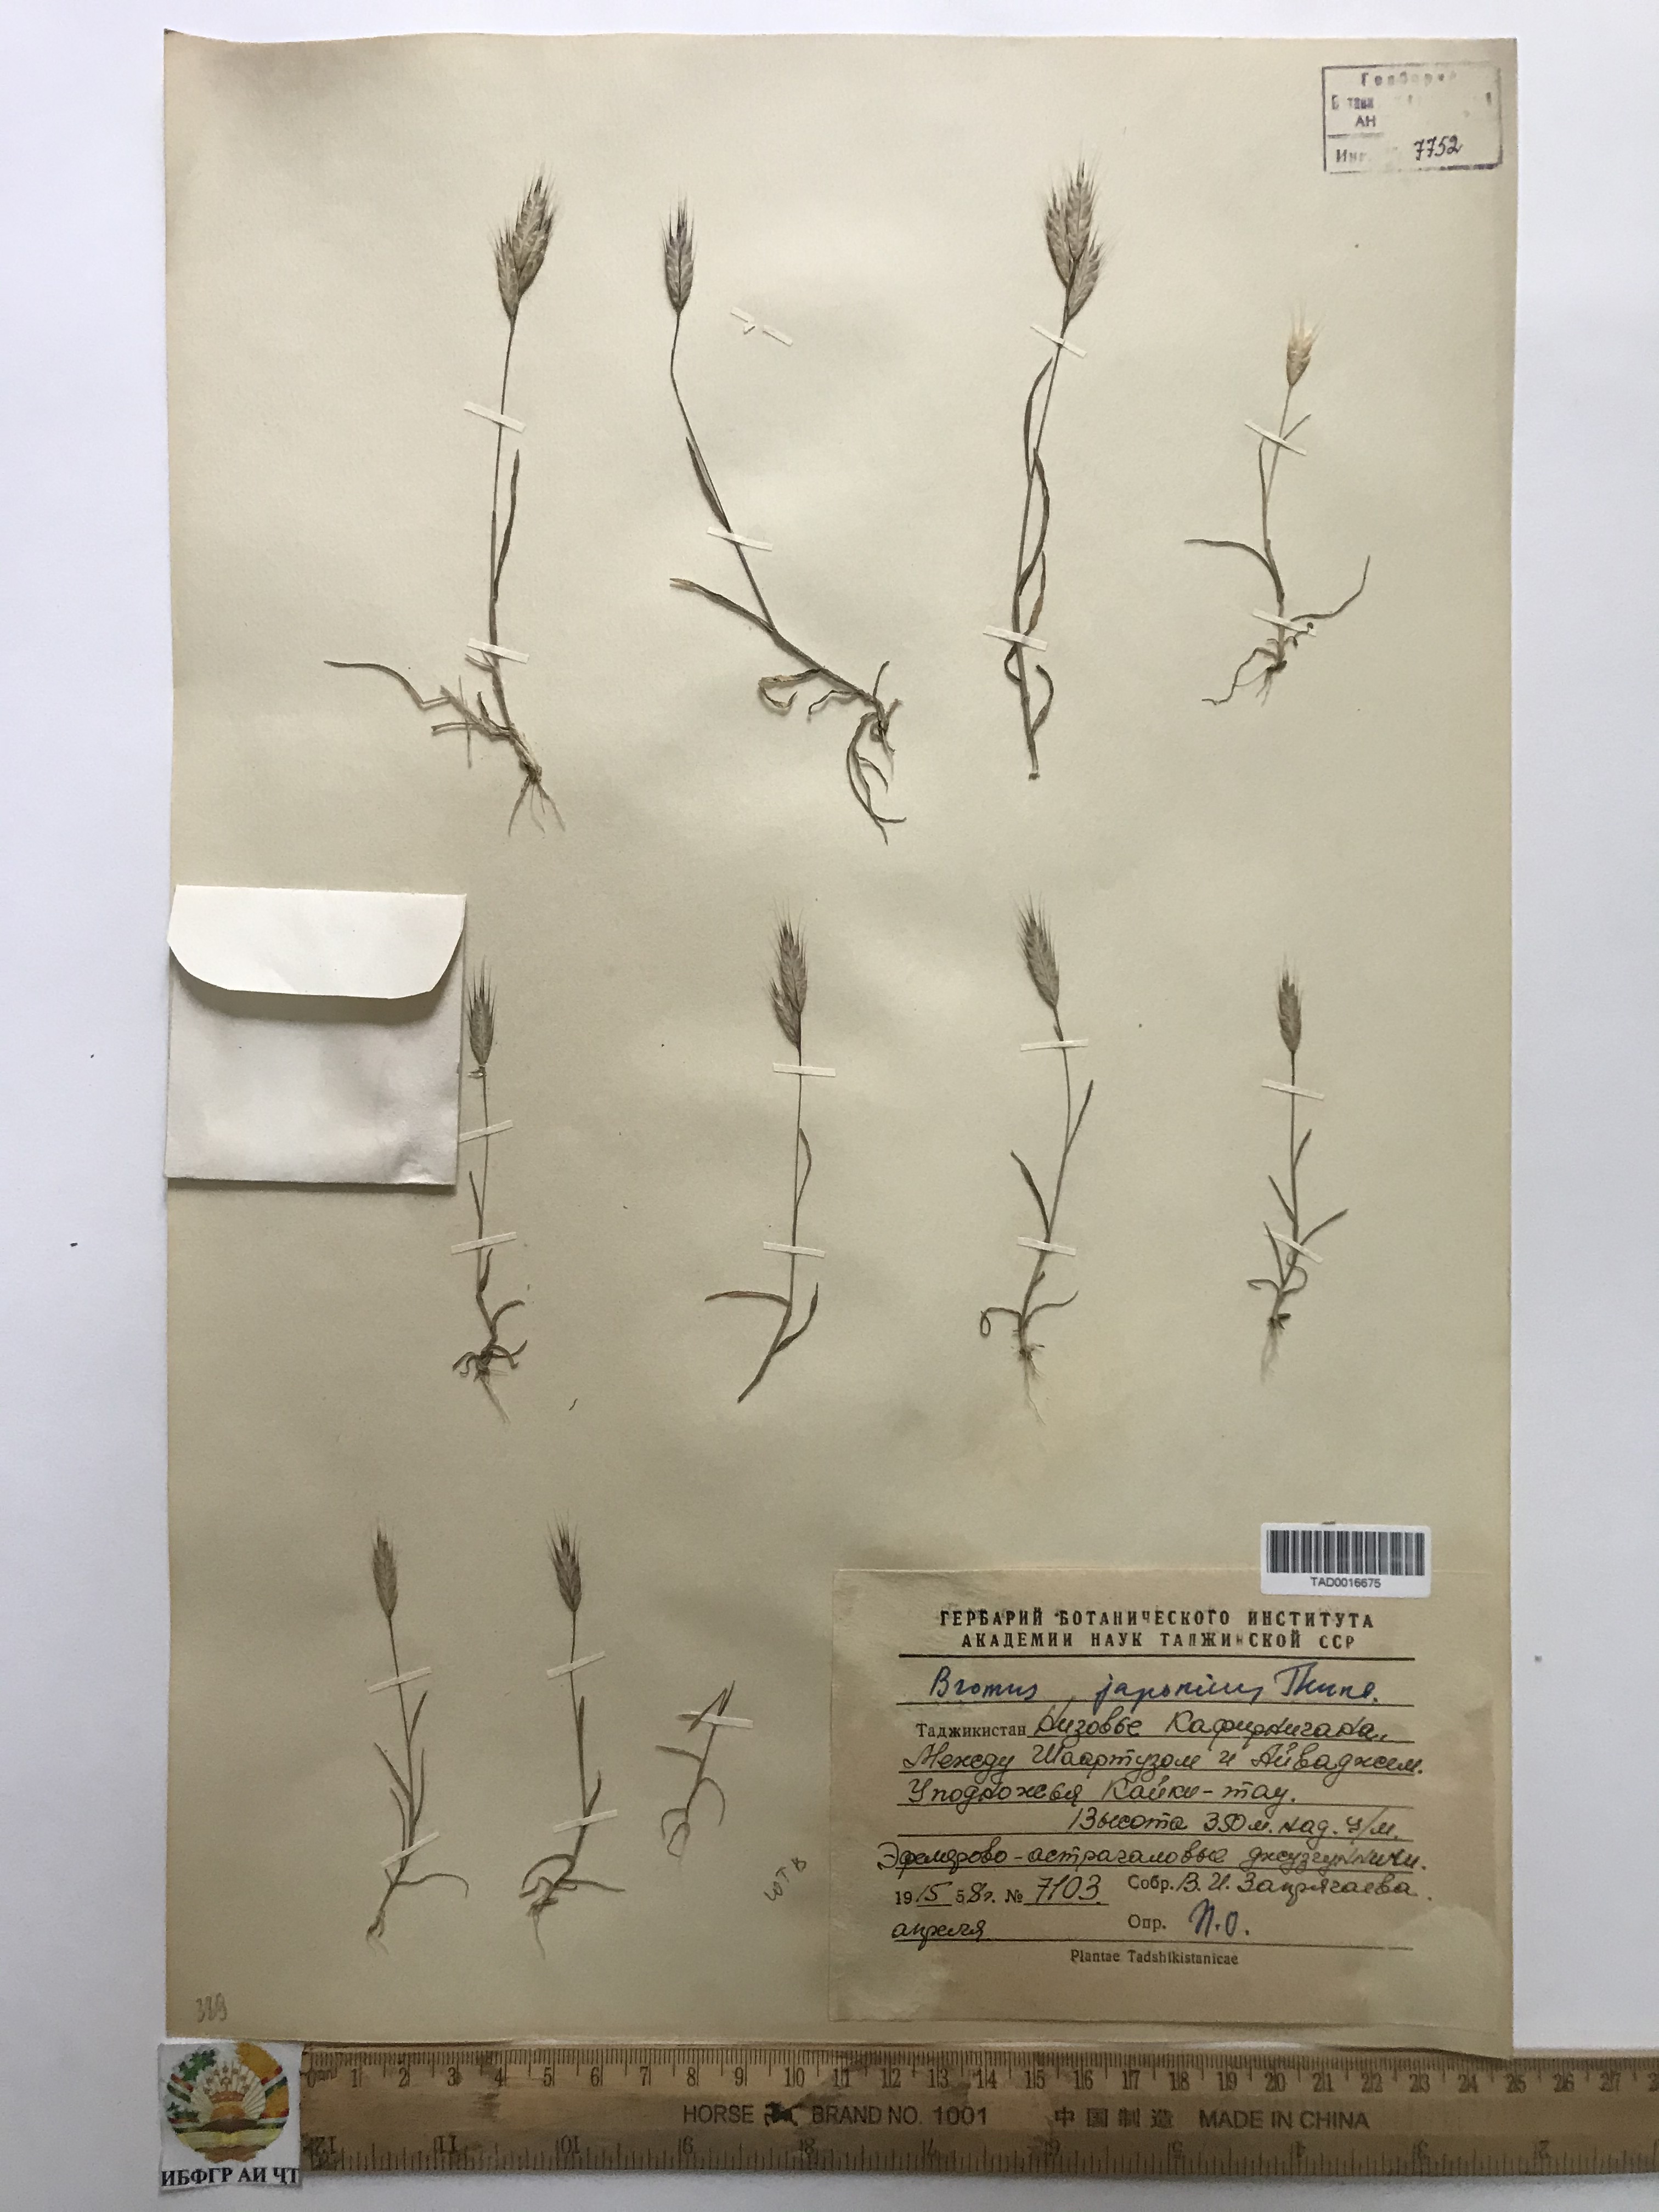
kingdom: Plantae
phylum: Tracheophyta
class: Liliopsida
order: Poales
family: Poaceae
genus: Bromus
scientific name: Bromus japonicus
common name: Japanese brome
